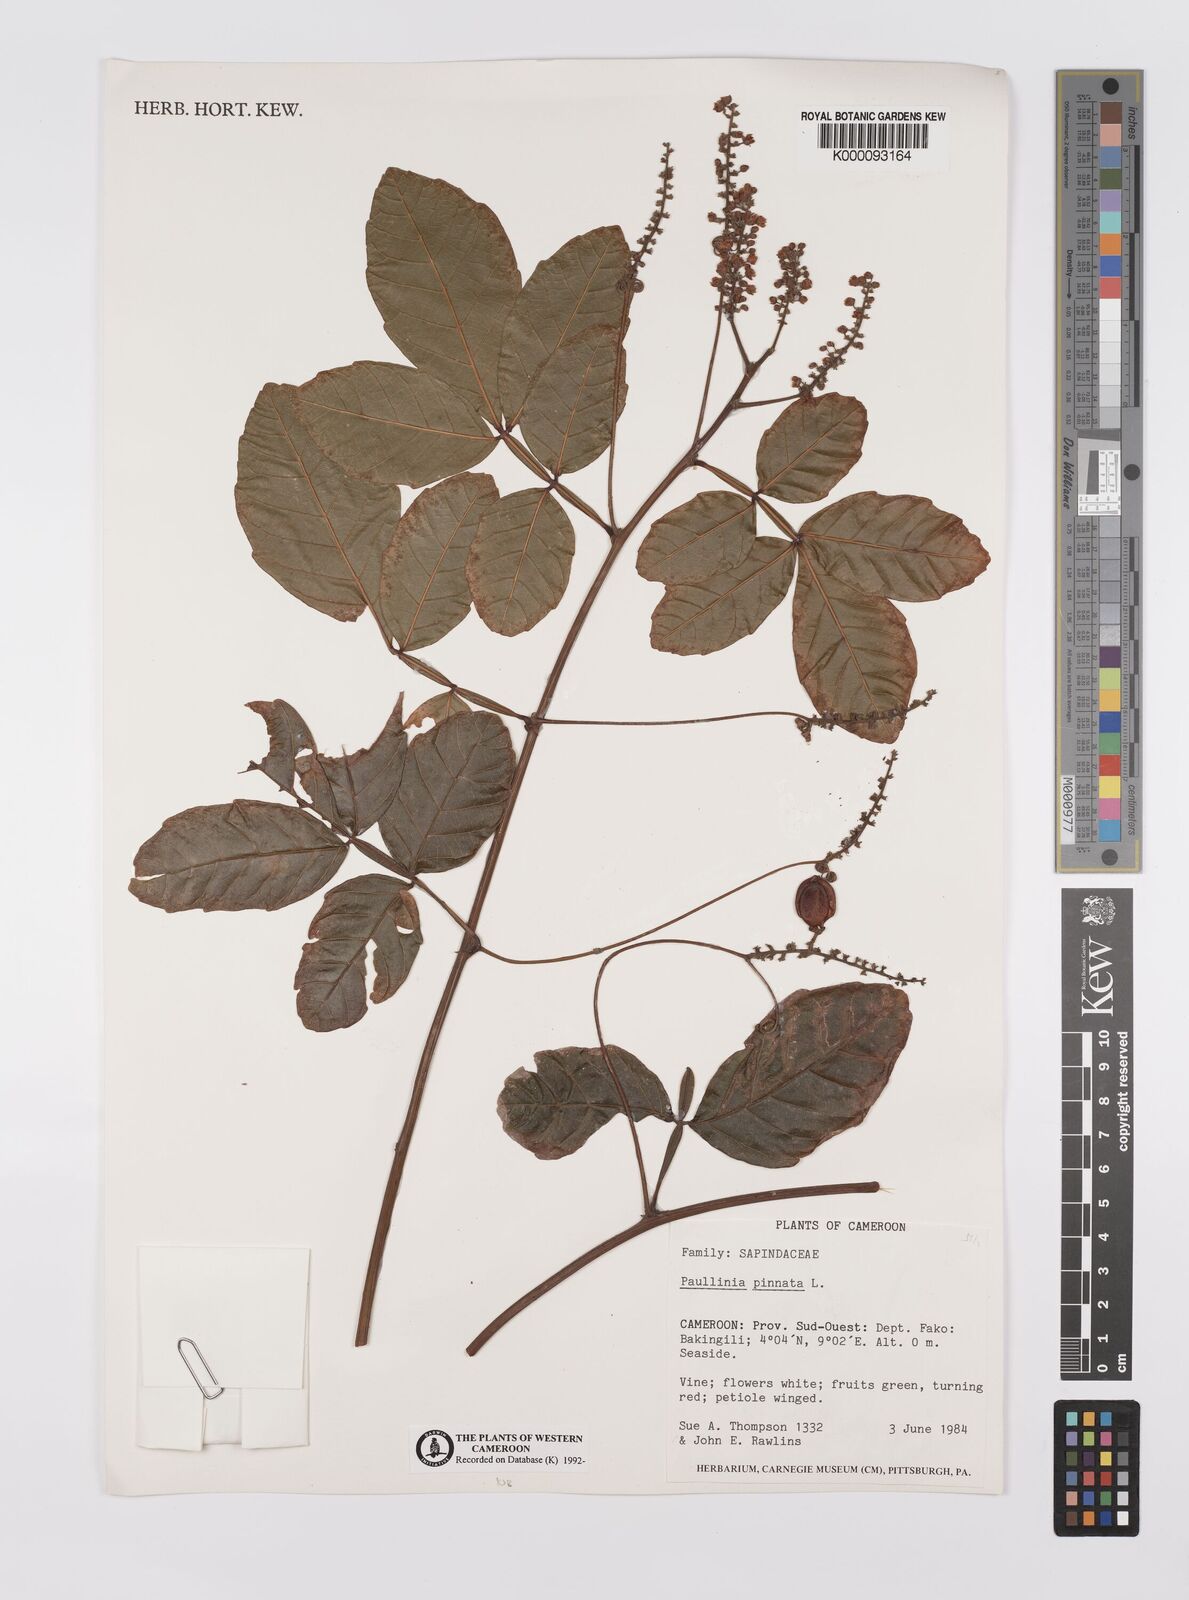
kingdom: Plantae
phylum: Tracheophyta
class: Magnoliopsida
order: Sapindales
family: Sapindaceae
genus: Paullinia
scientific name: Paullinia pinnata
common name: Barbasco
